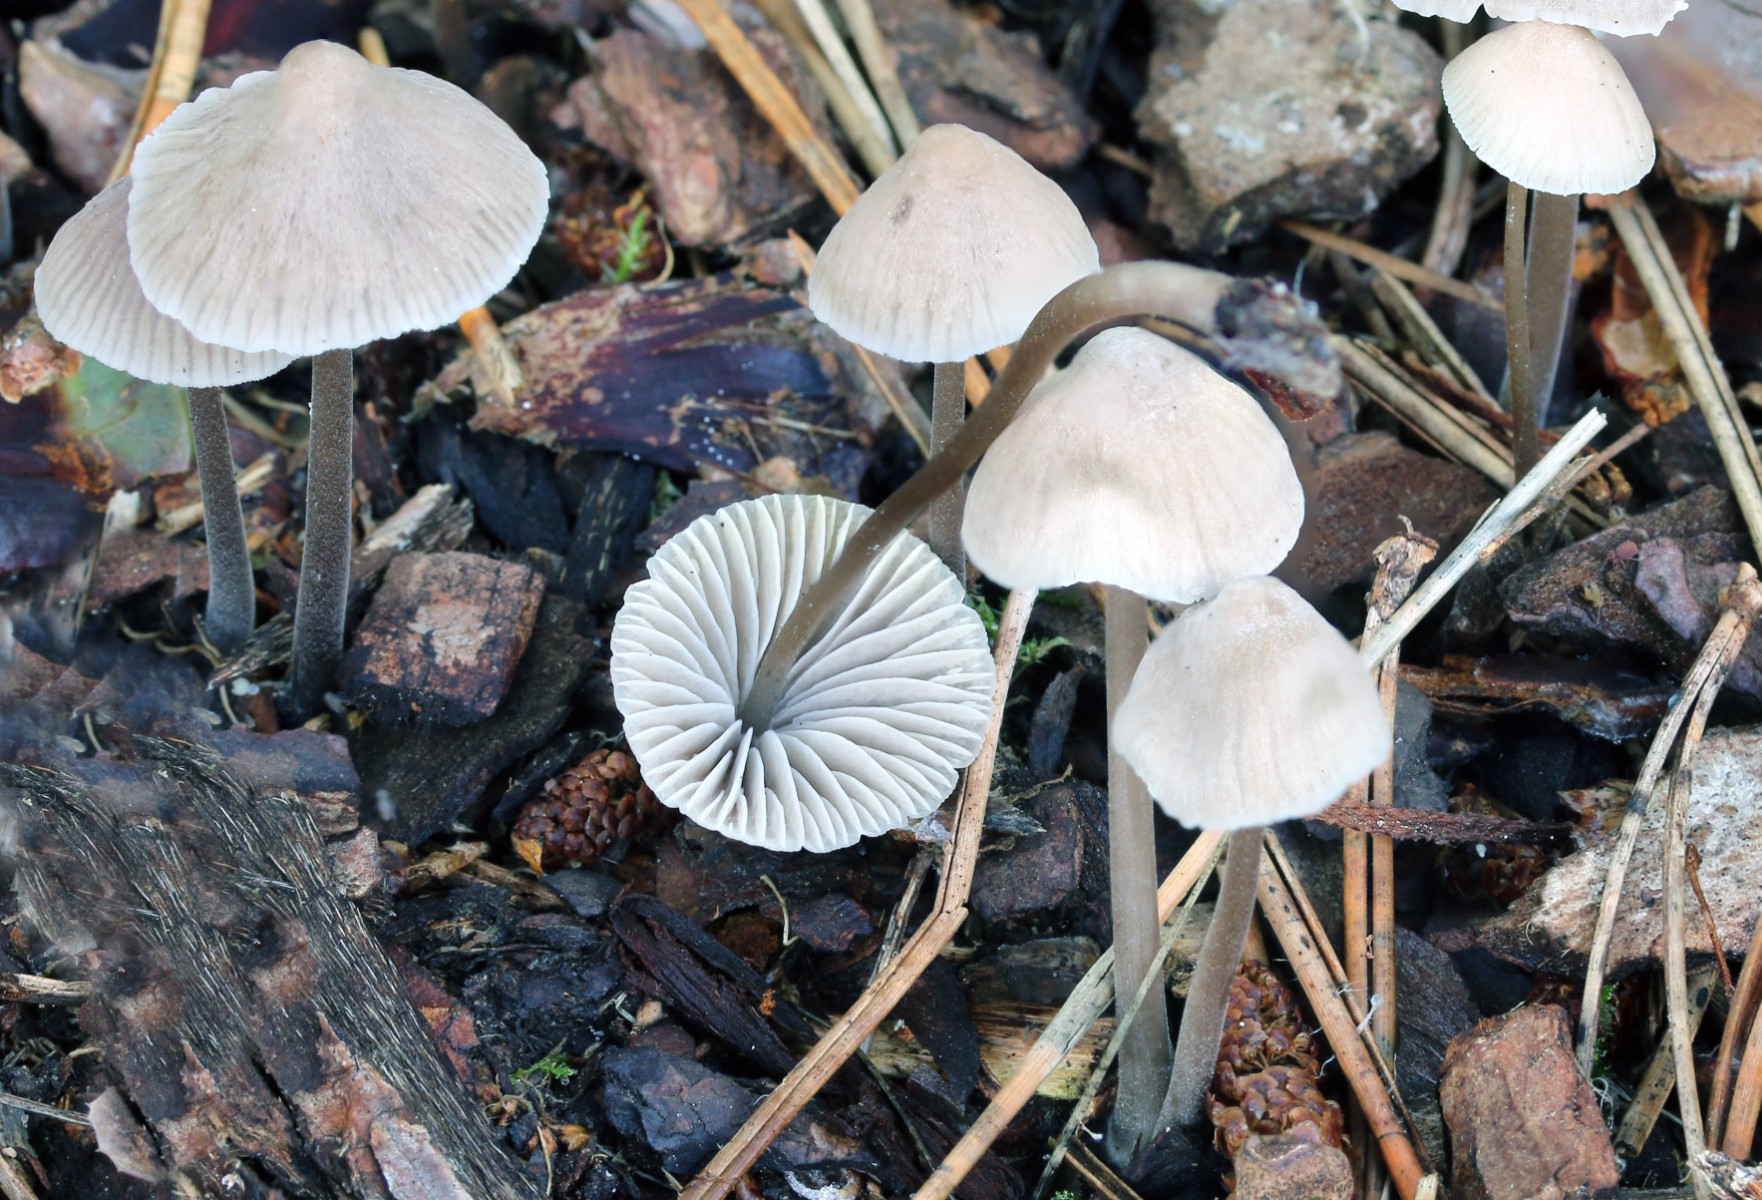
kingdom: Fungi
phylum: Basidiomycota
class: Agaricomycetes
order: Agaricales
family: Mycenaceae
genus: Mycena
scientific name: Mycena
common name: huesvamp
